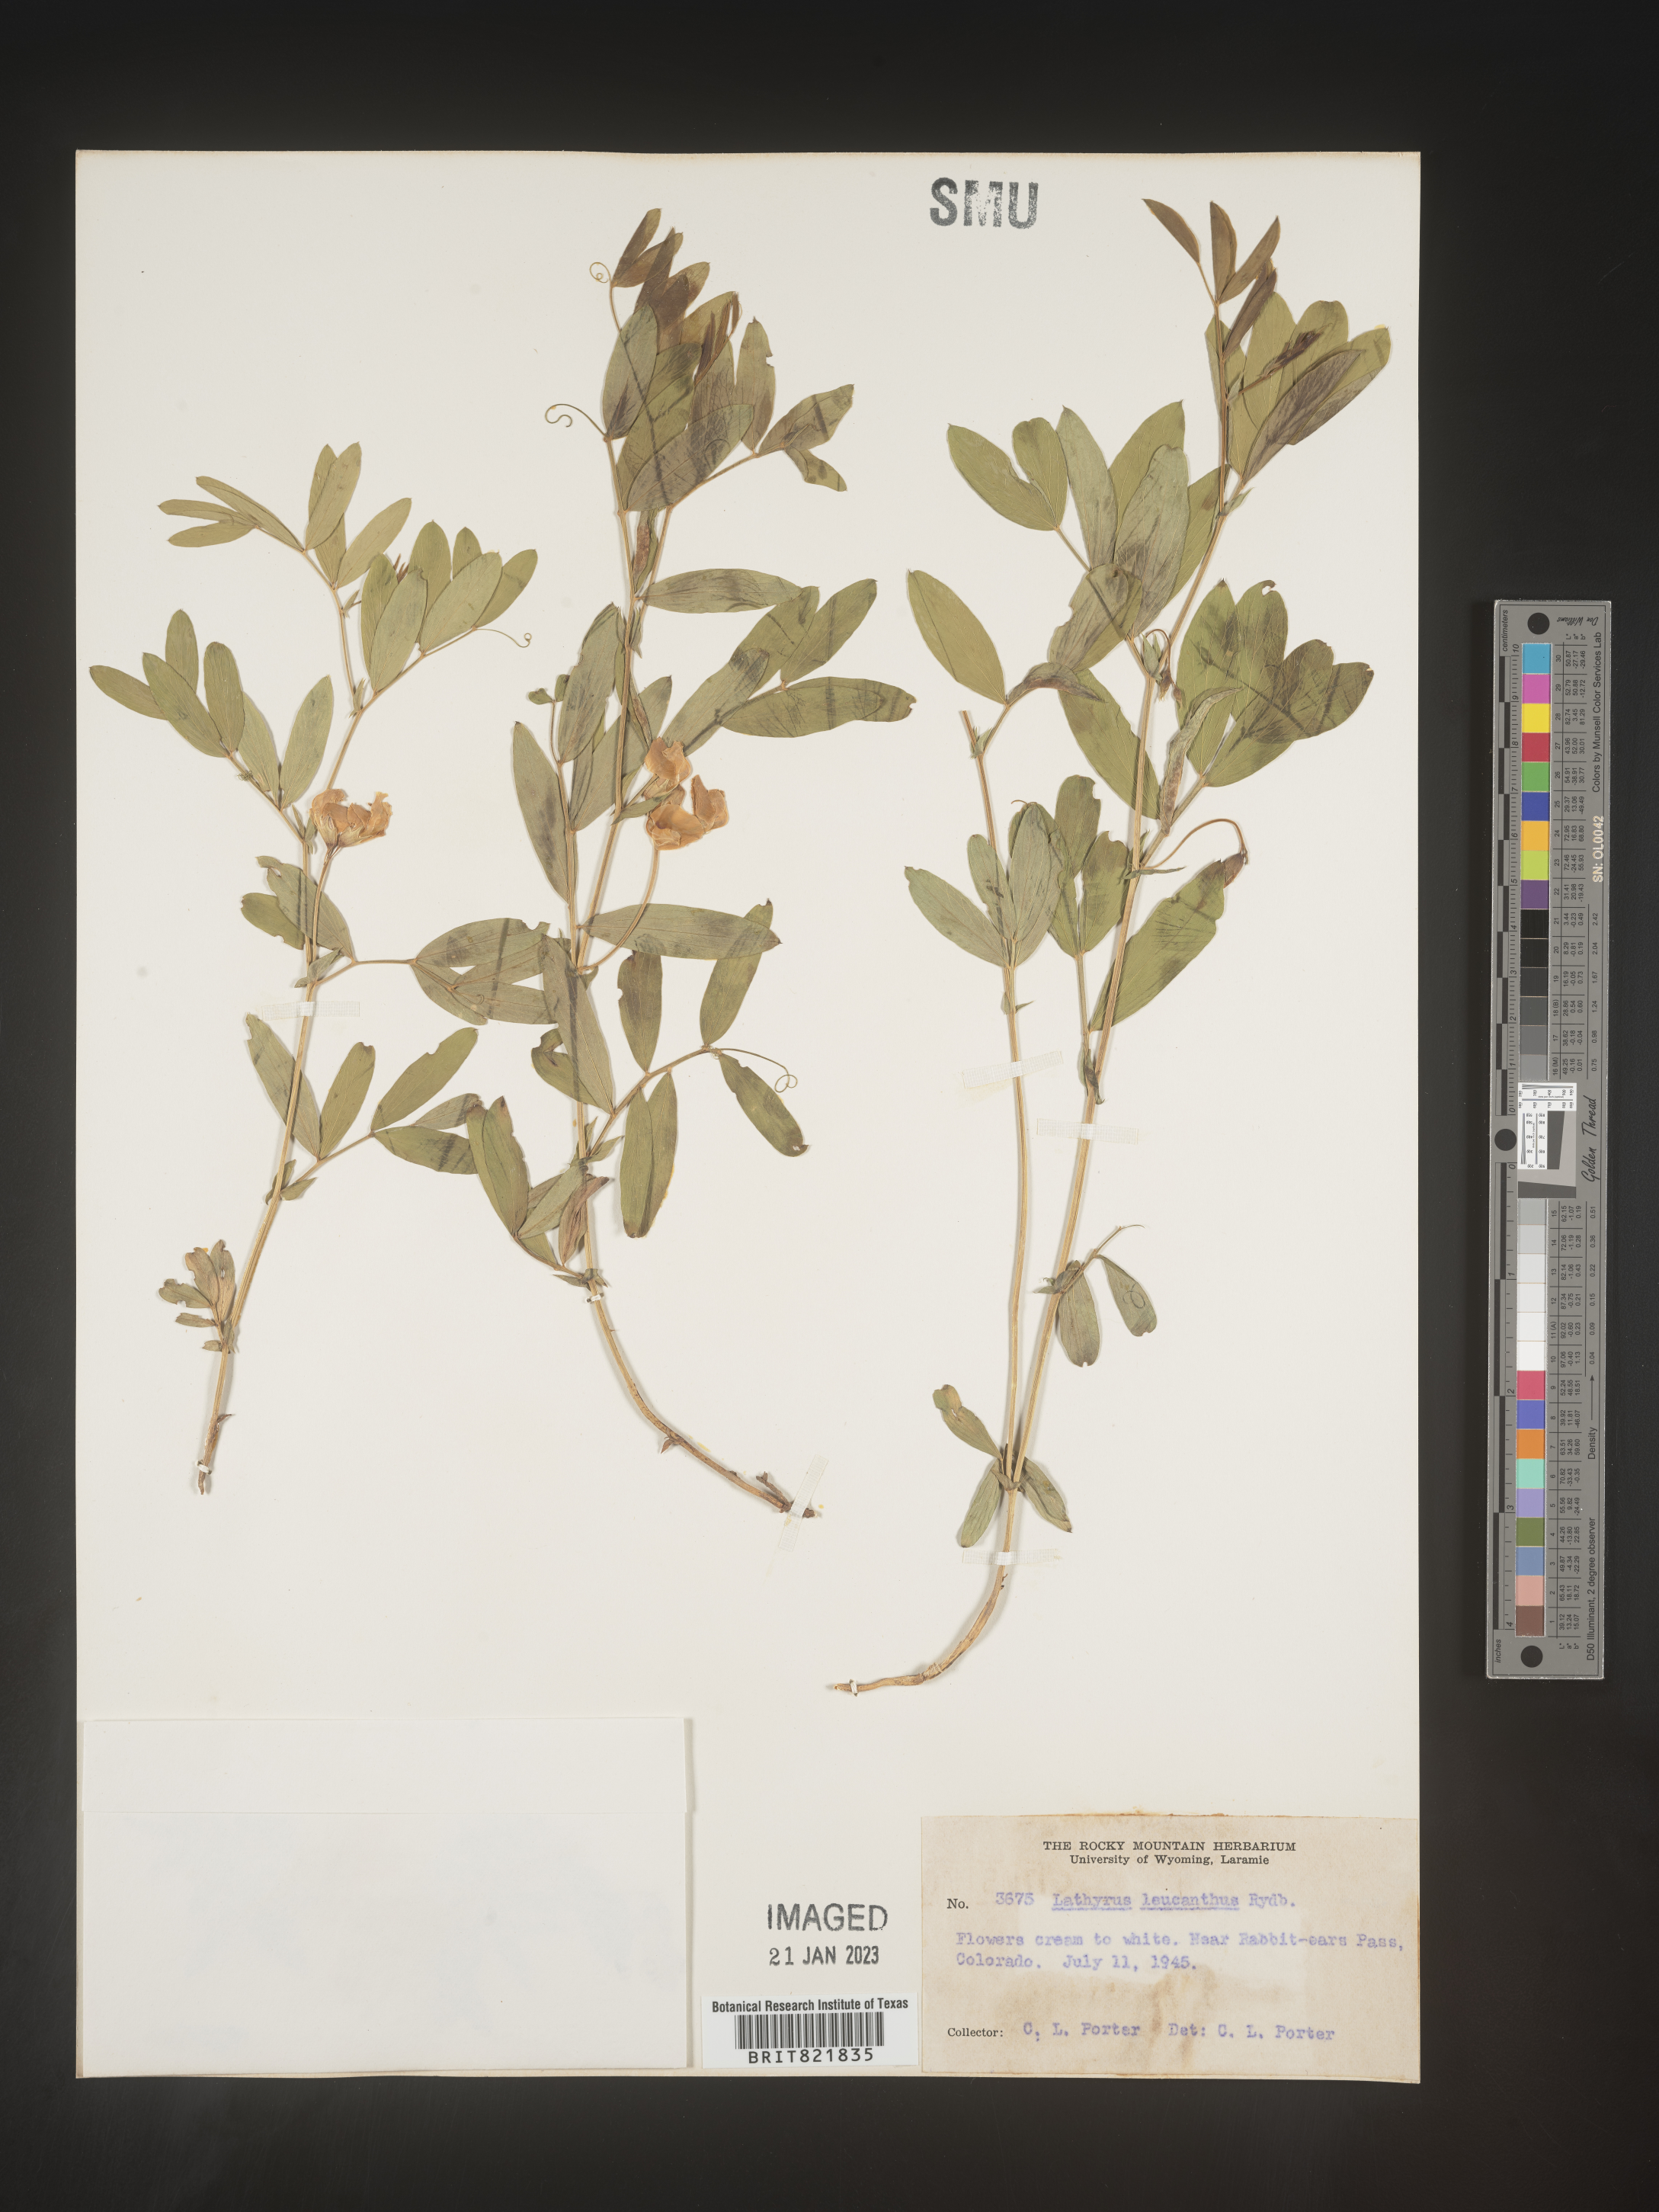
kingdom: Plantae
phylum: Tracheophyta
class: Magnoliopsida
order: Fabales
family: Fabaceae
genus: Lathyrus
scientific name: Lathyrus
